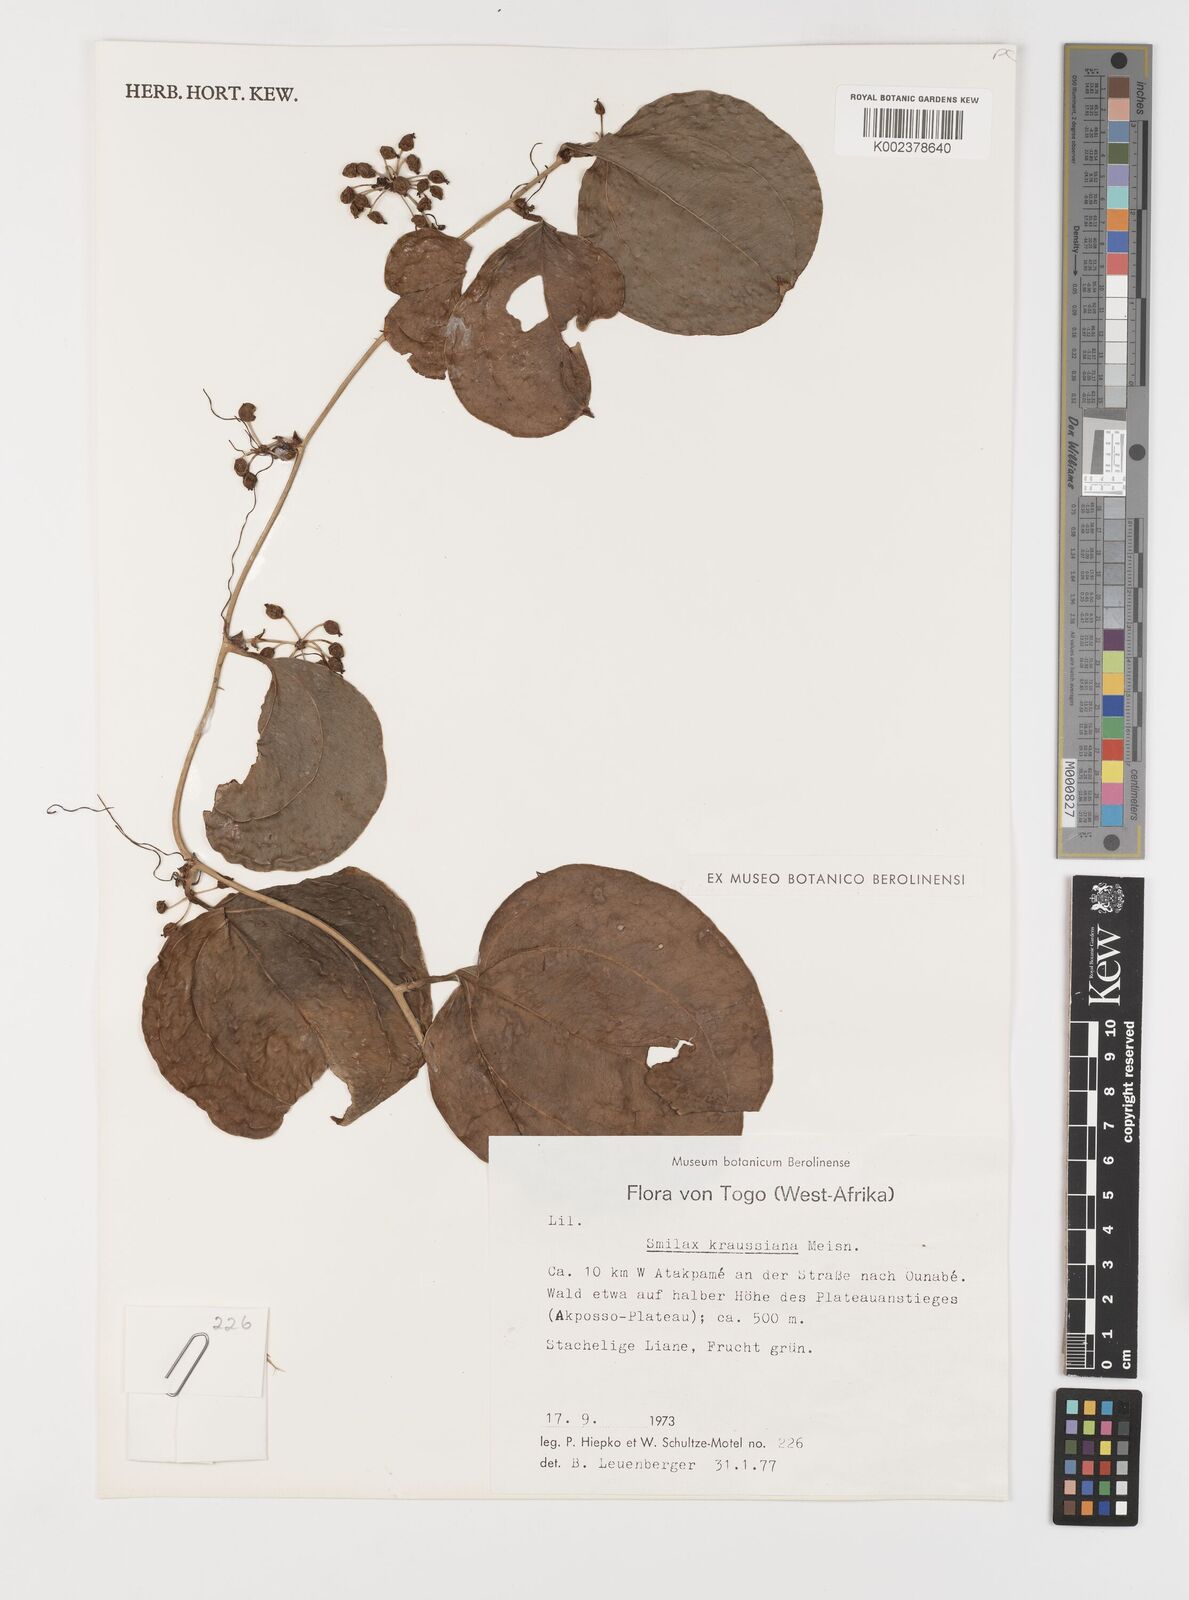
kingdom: Plantae
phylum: Tracheophyta
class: Liliopsida
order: Liliales
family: Smilacaceae
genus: Smilax
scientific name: Smilax anceps
